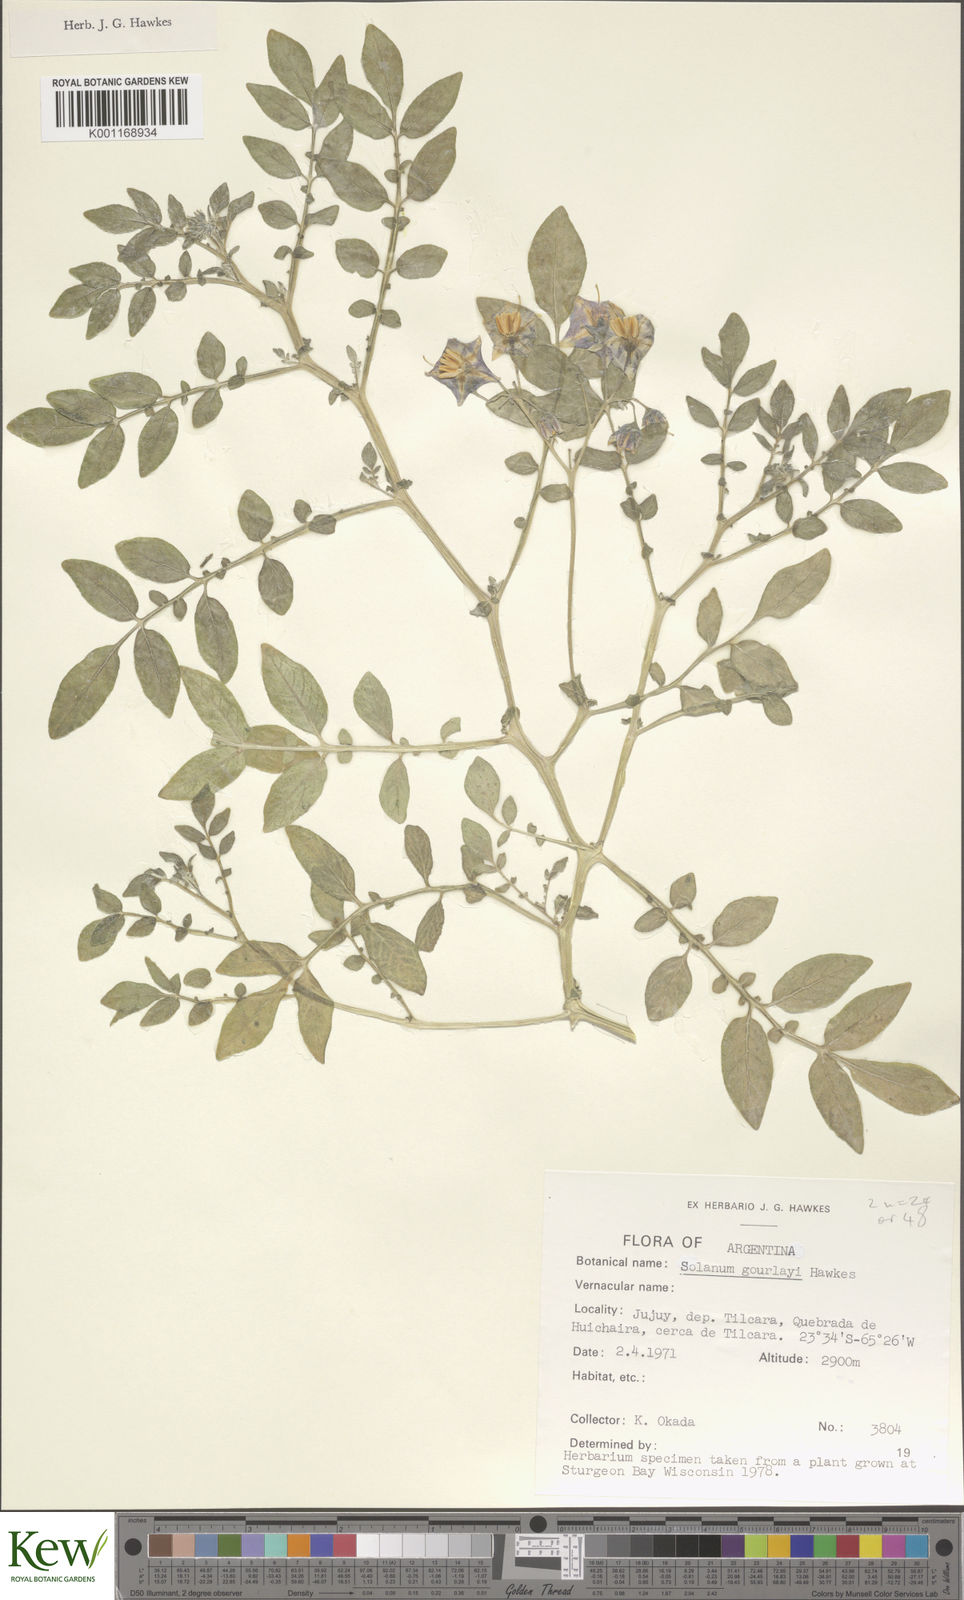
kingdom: Plantae
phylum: Tracheophyta
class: Magnoliopsida
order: Solanales
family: Solanaceae
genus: Solanum
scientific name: Solanum brevicaule
